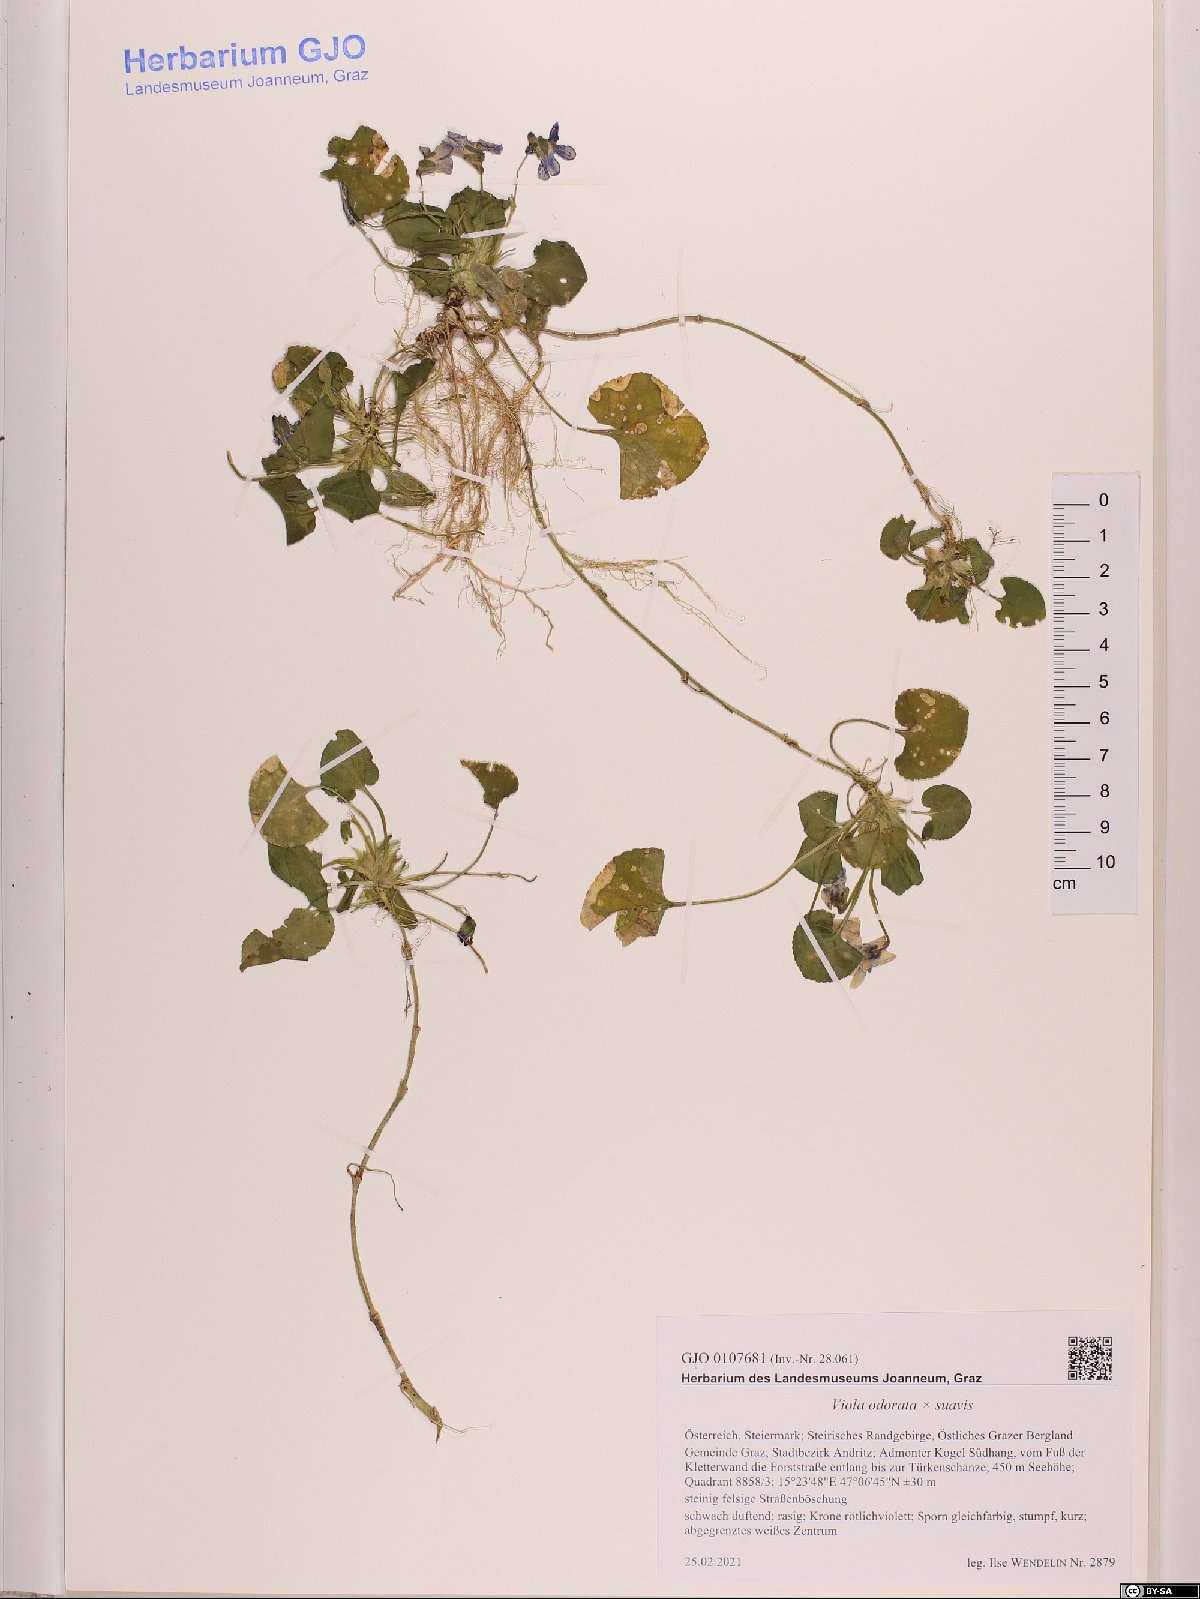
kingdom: Plantae
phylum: Tracheophyta
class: Magnoliopsida
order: Malpighiales
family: Violaceae
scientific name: Violaceae
